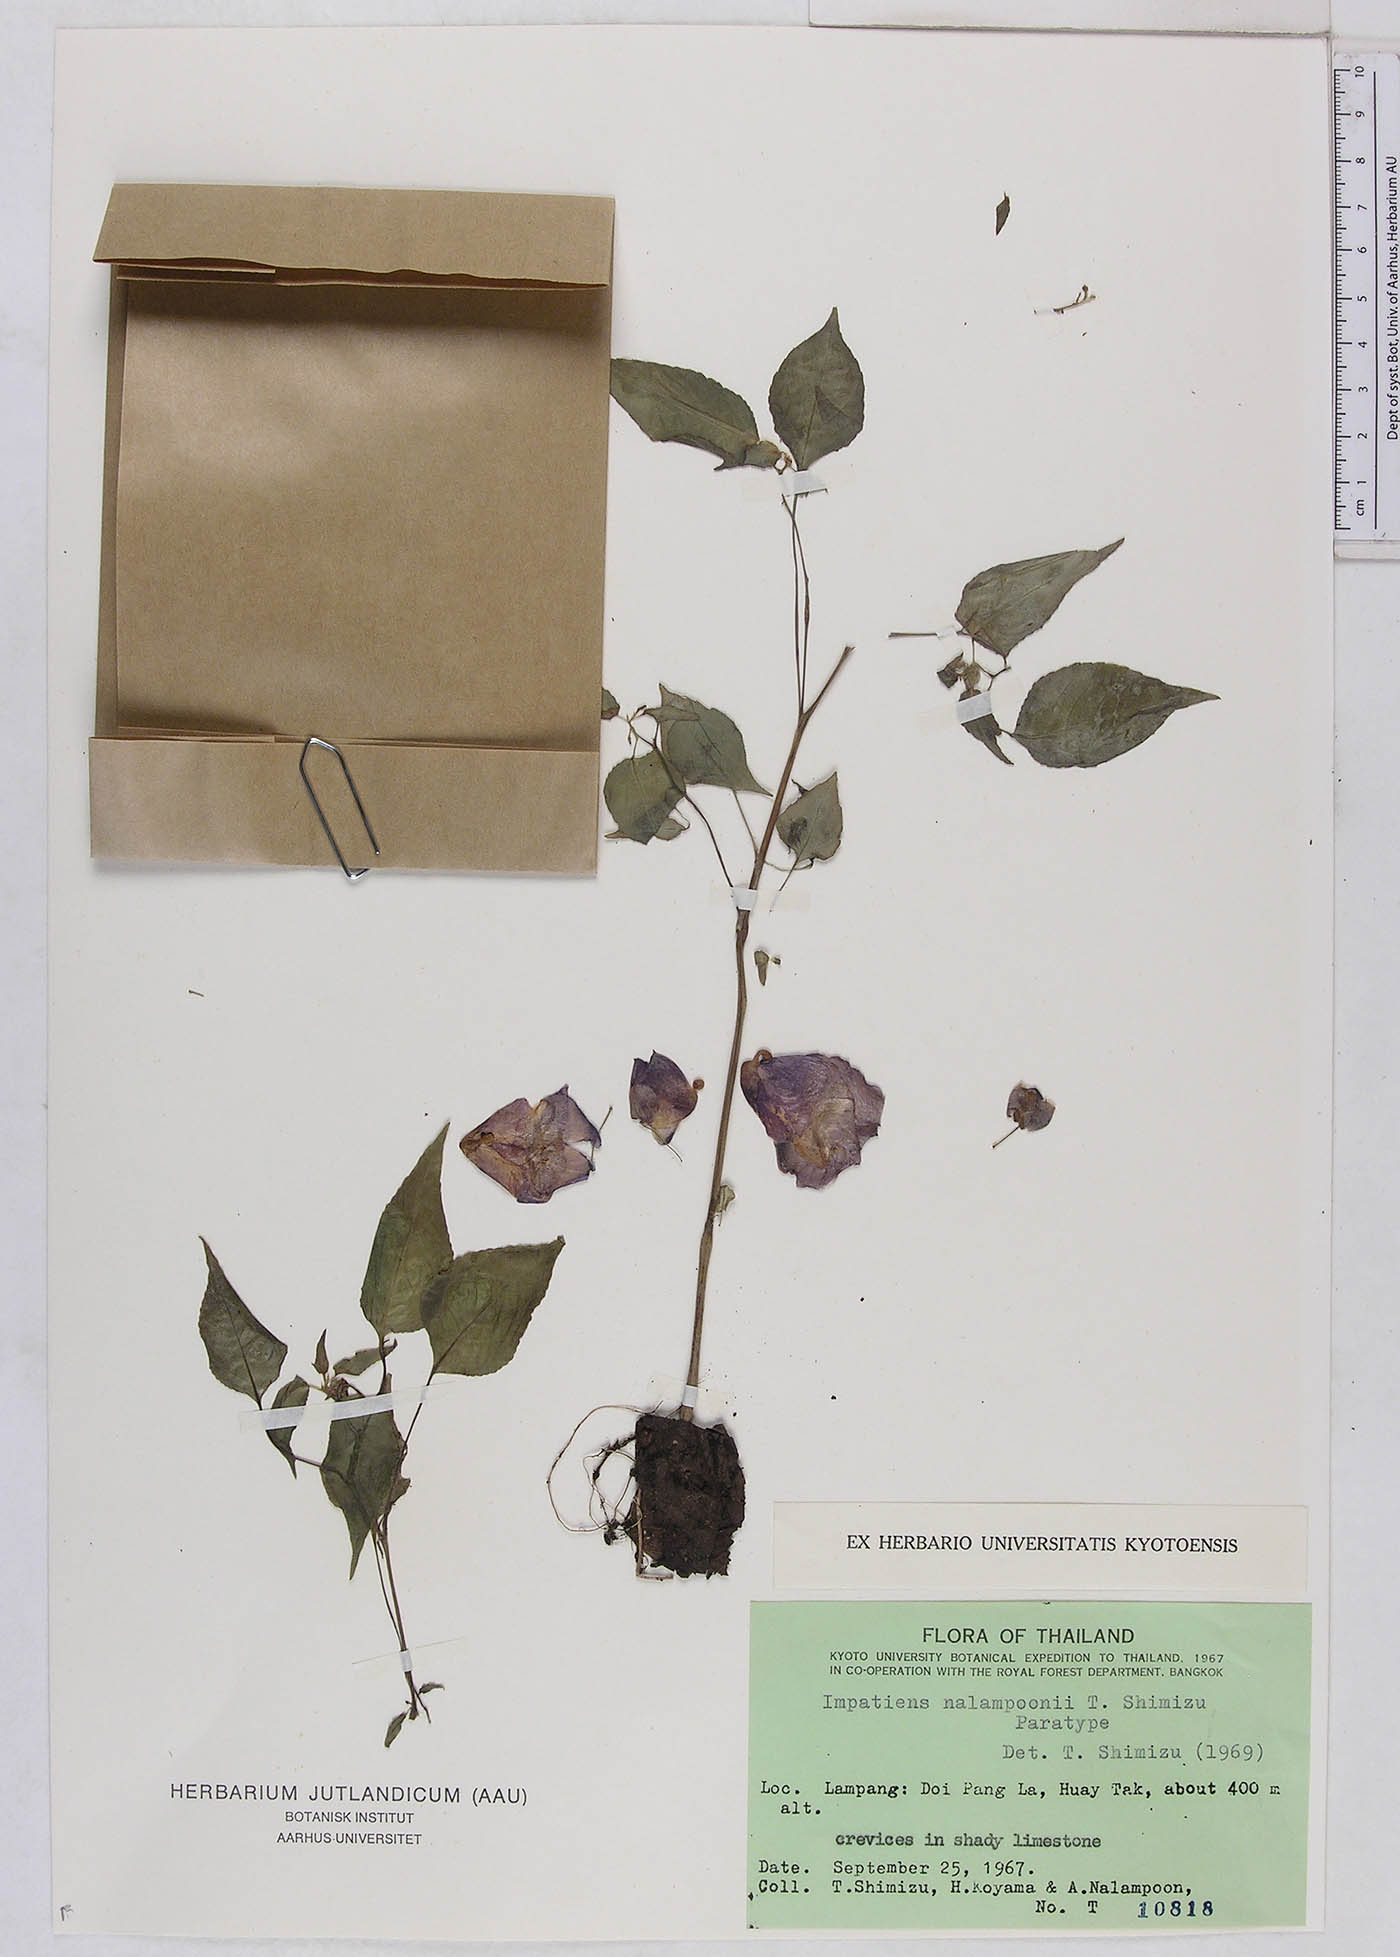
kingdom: Plantae
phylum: Tracheophyta
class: Magnoliopsida
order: Ericales
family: Balsaminaceae
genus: Impatiens
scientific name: Impatiens nalampoonii
